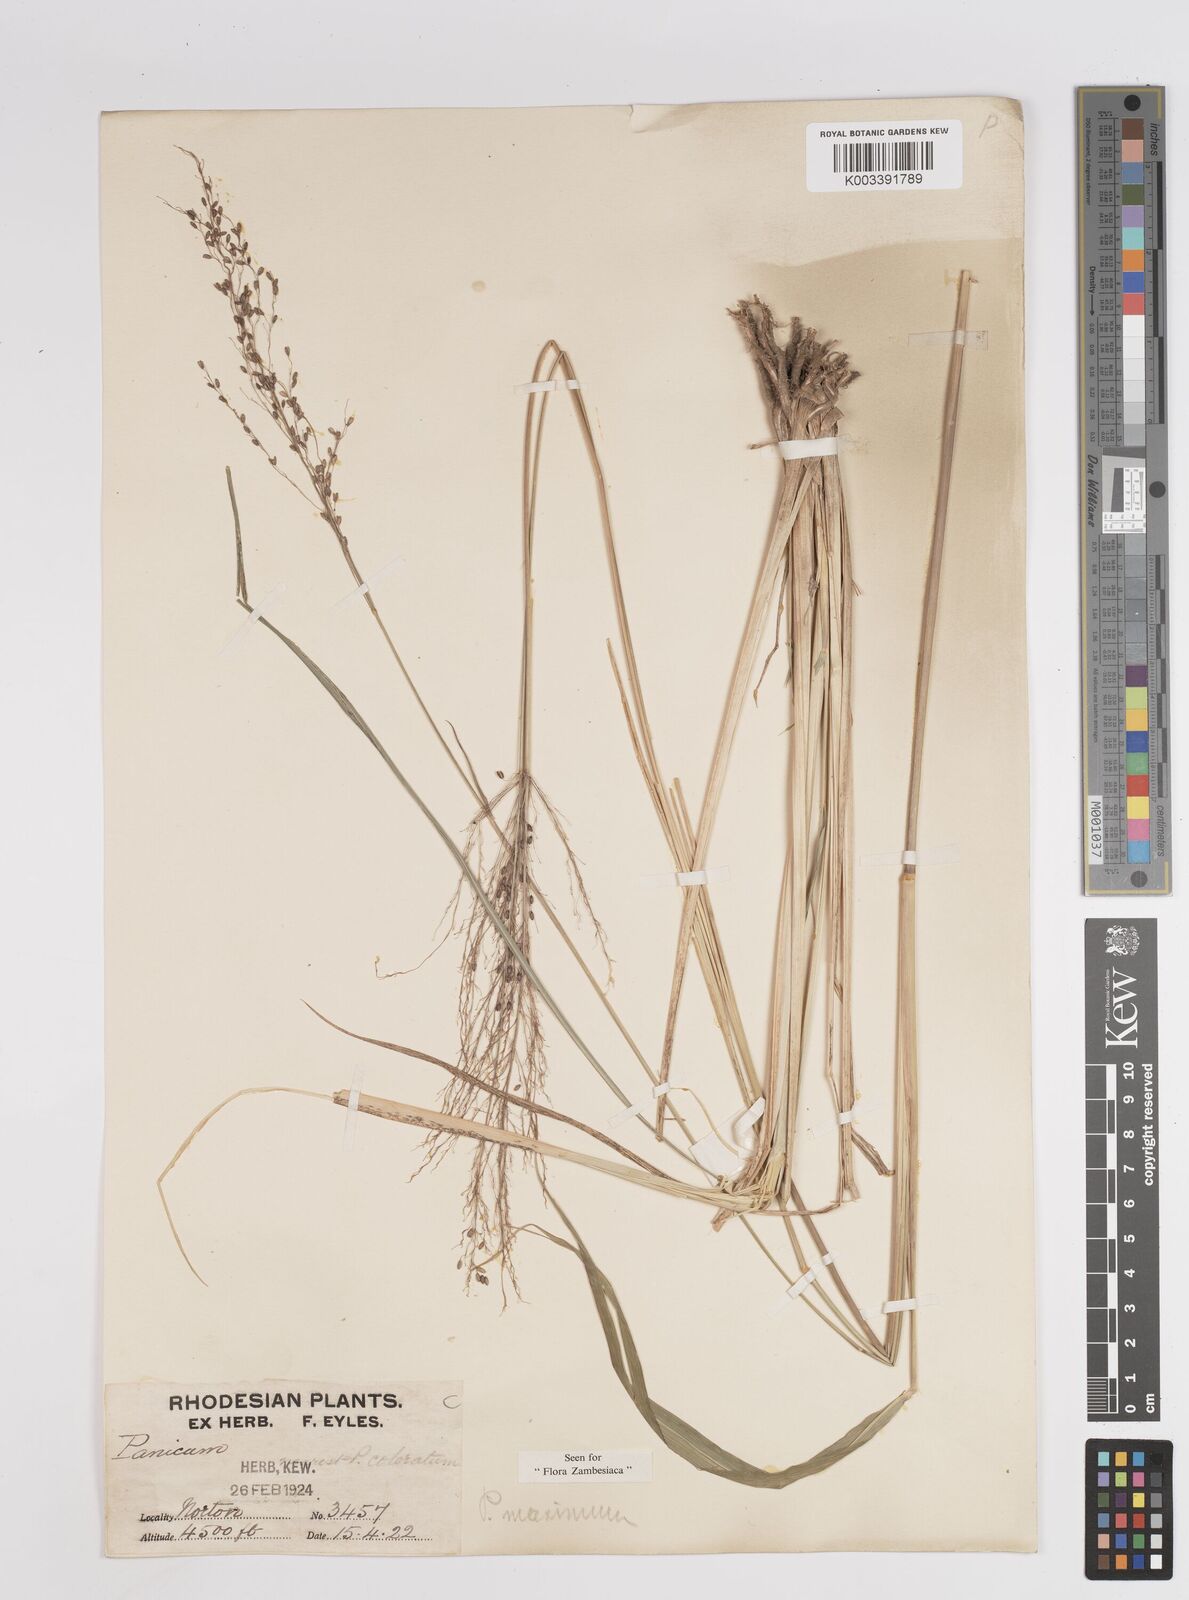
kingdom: Plantae
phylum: Tracheophyta
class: Liliopsida
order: Poales
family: Poaceae
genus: Megathyrsus
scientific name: Megathyrsus maximus
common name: Guineagrass
